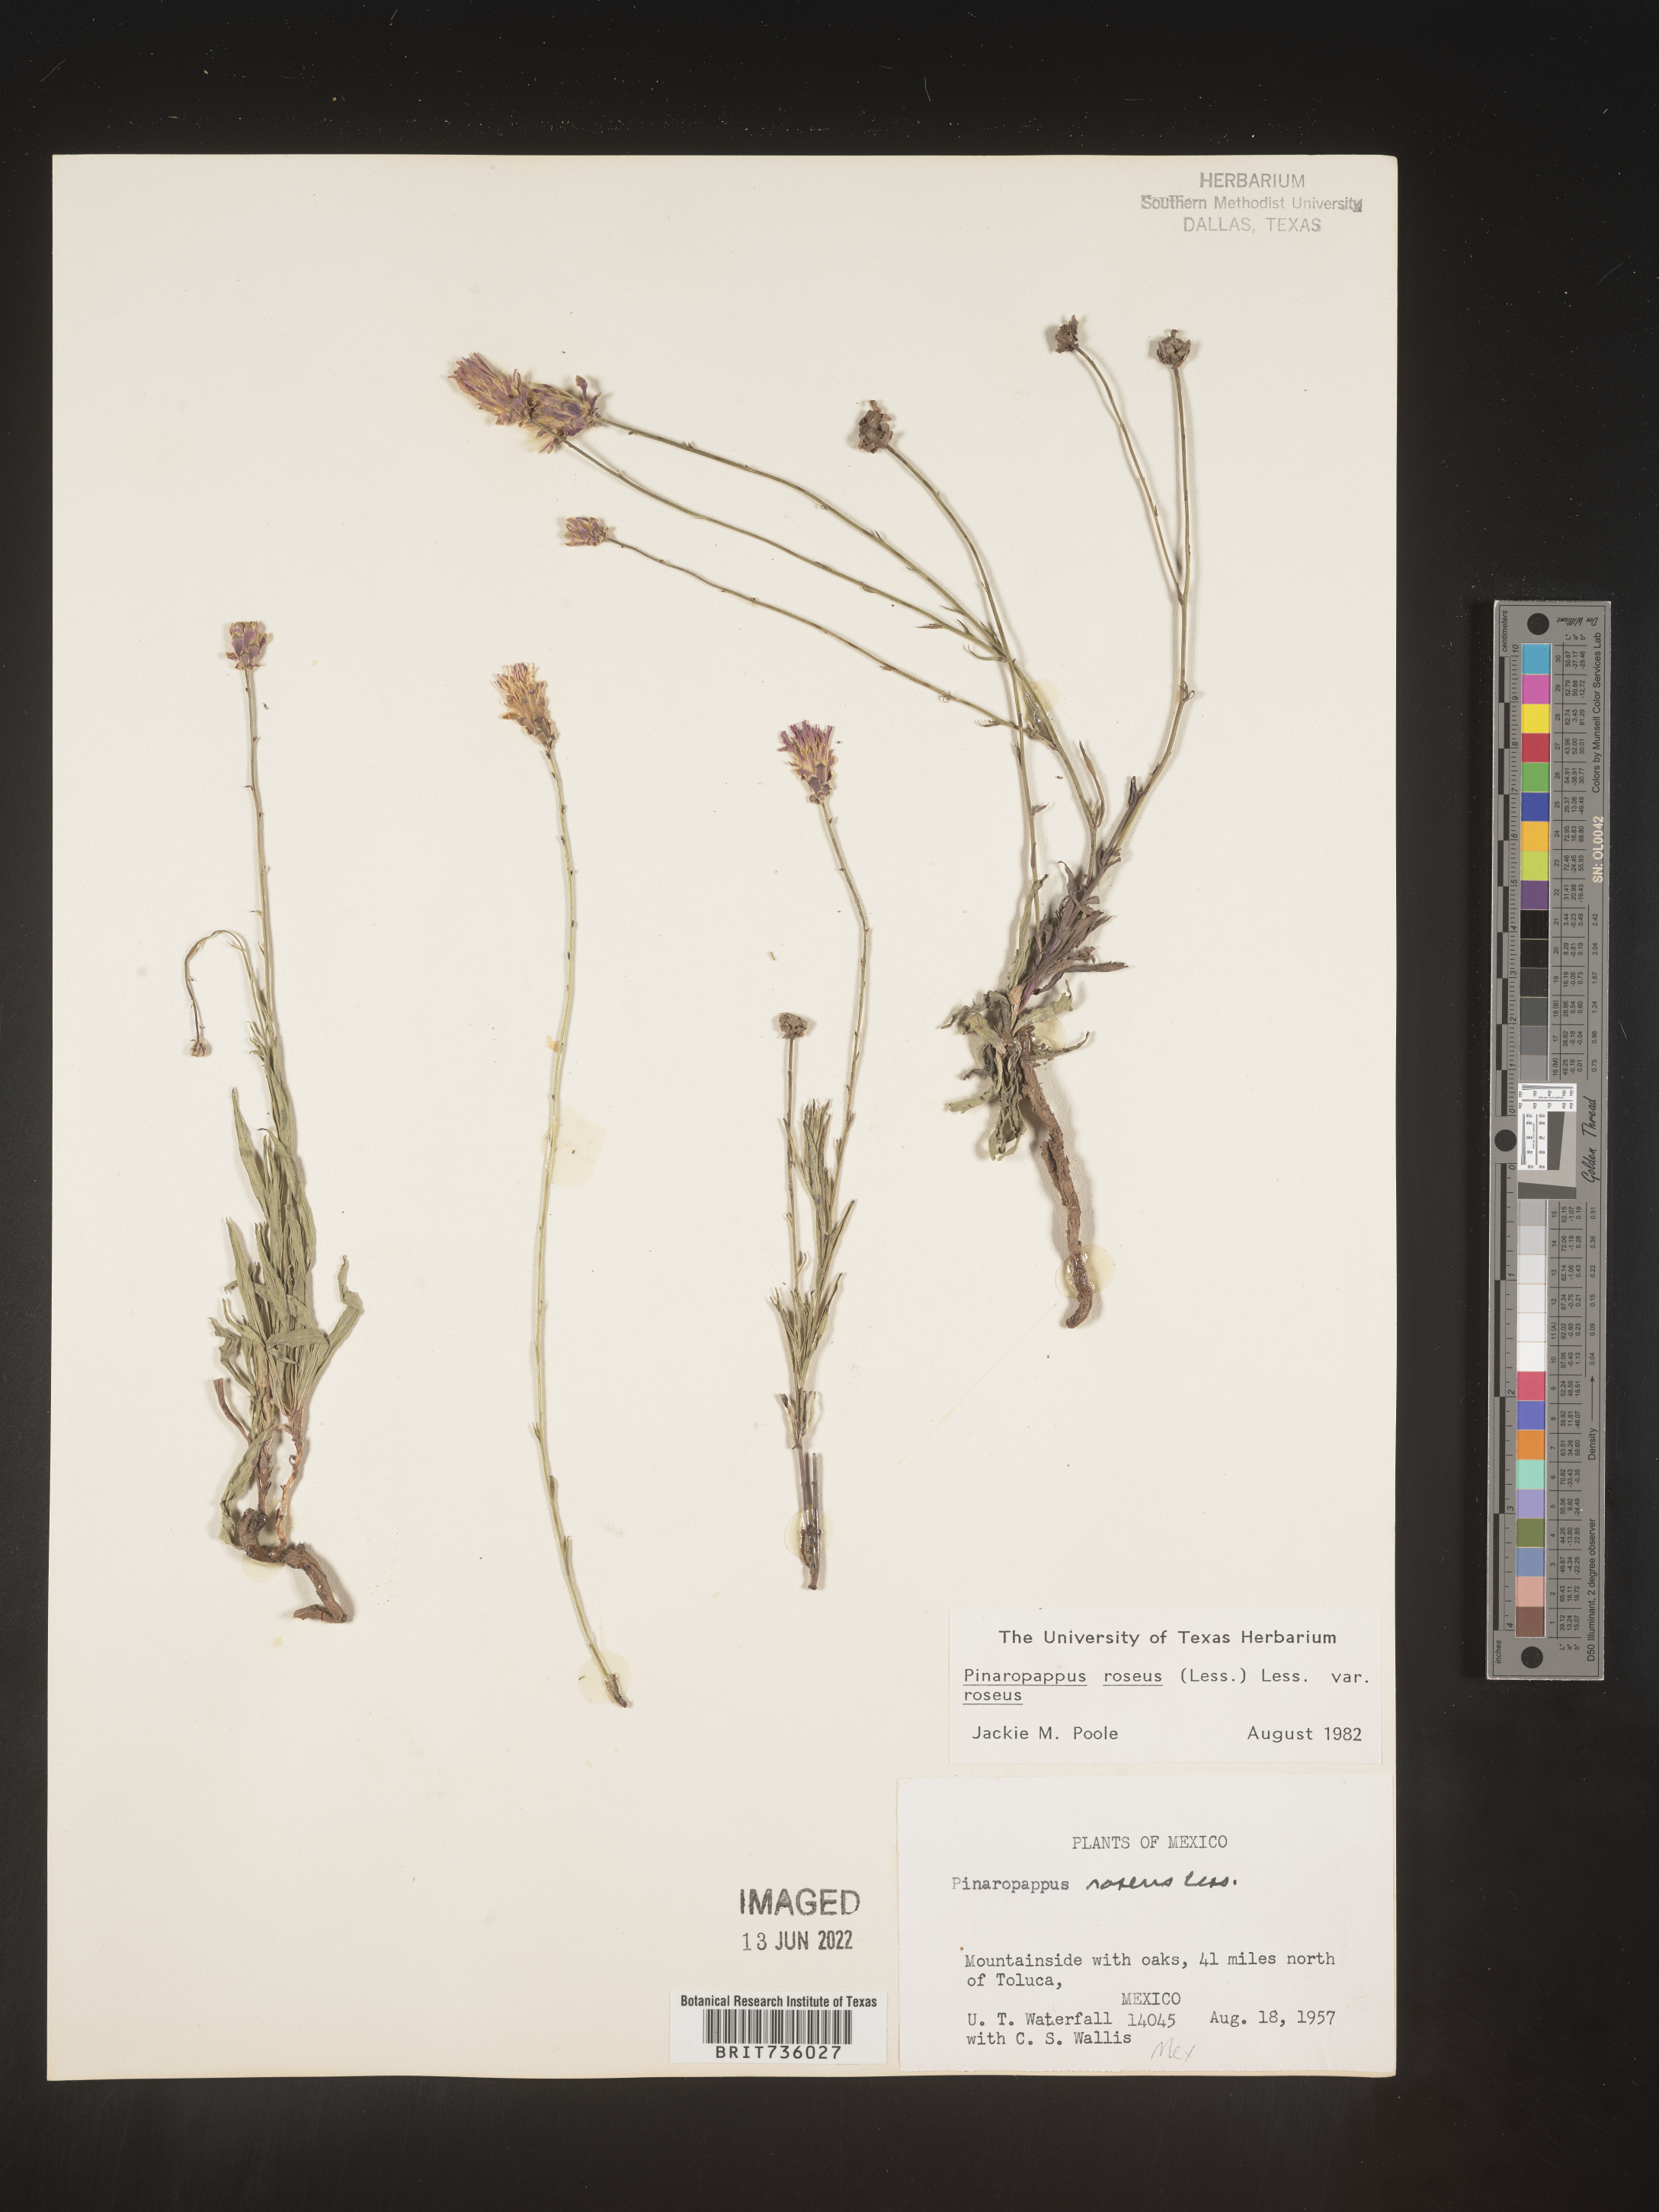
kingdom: Plantae
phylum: Tracheophyta
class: Magnoliopsida
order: Asterales
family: Asteraceae
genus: Pinaropappus
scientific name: Pinaropappus
